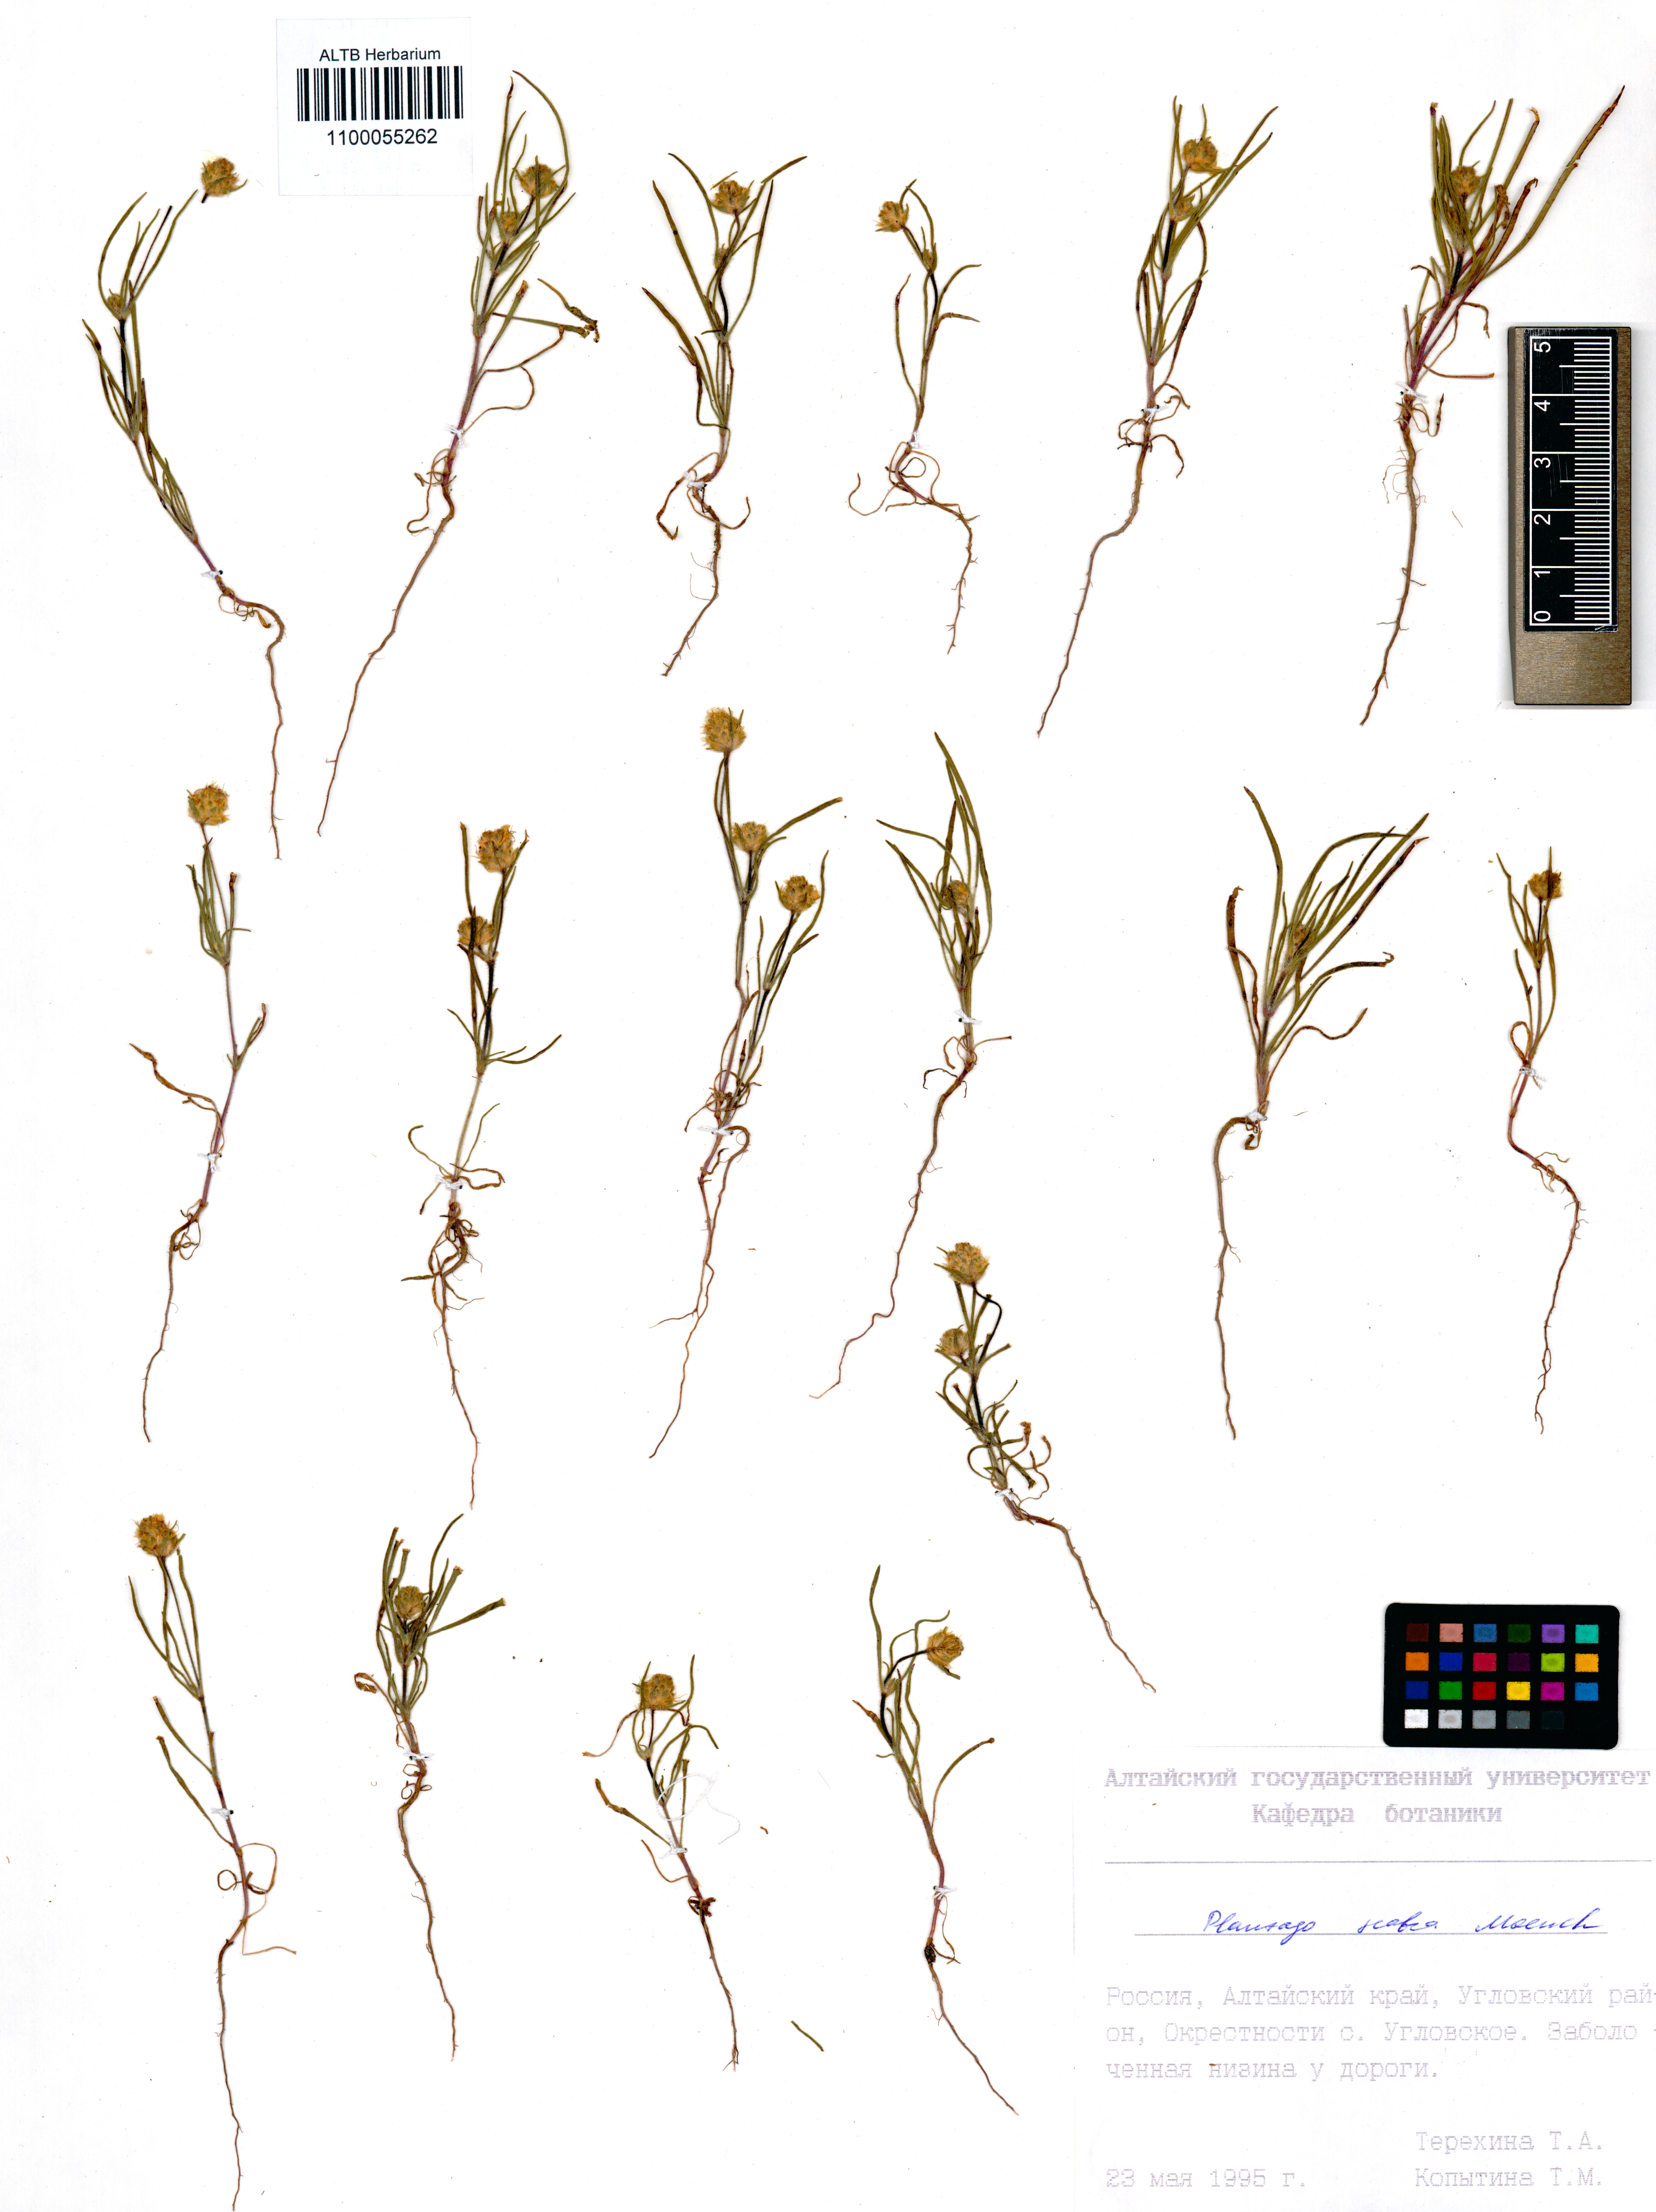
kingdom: Plantae
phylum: Tracheophyta
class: Magnoliopsida
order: Lamiales
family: Plantaginaceae
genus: Plantago
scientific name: Plantago arenaria
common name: Branched plantain
